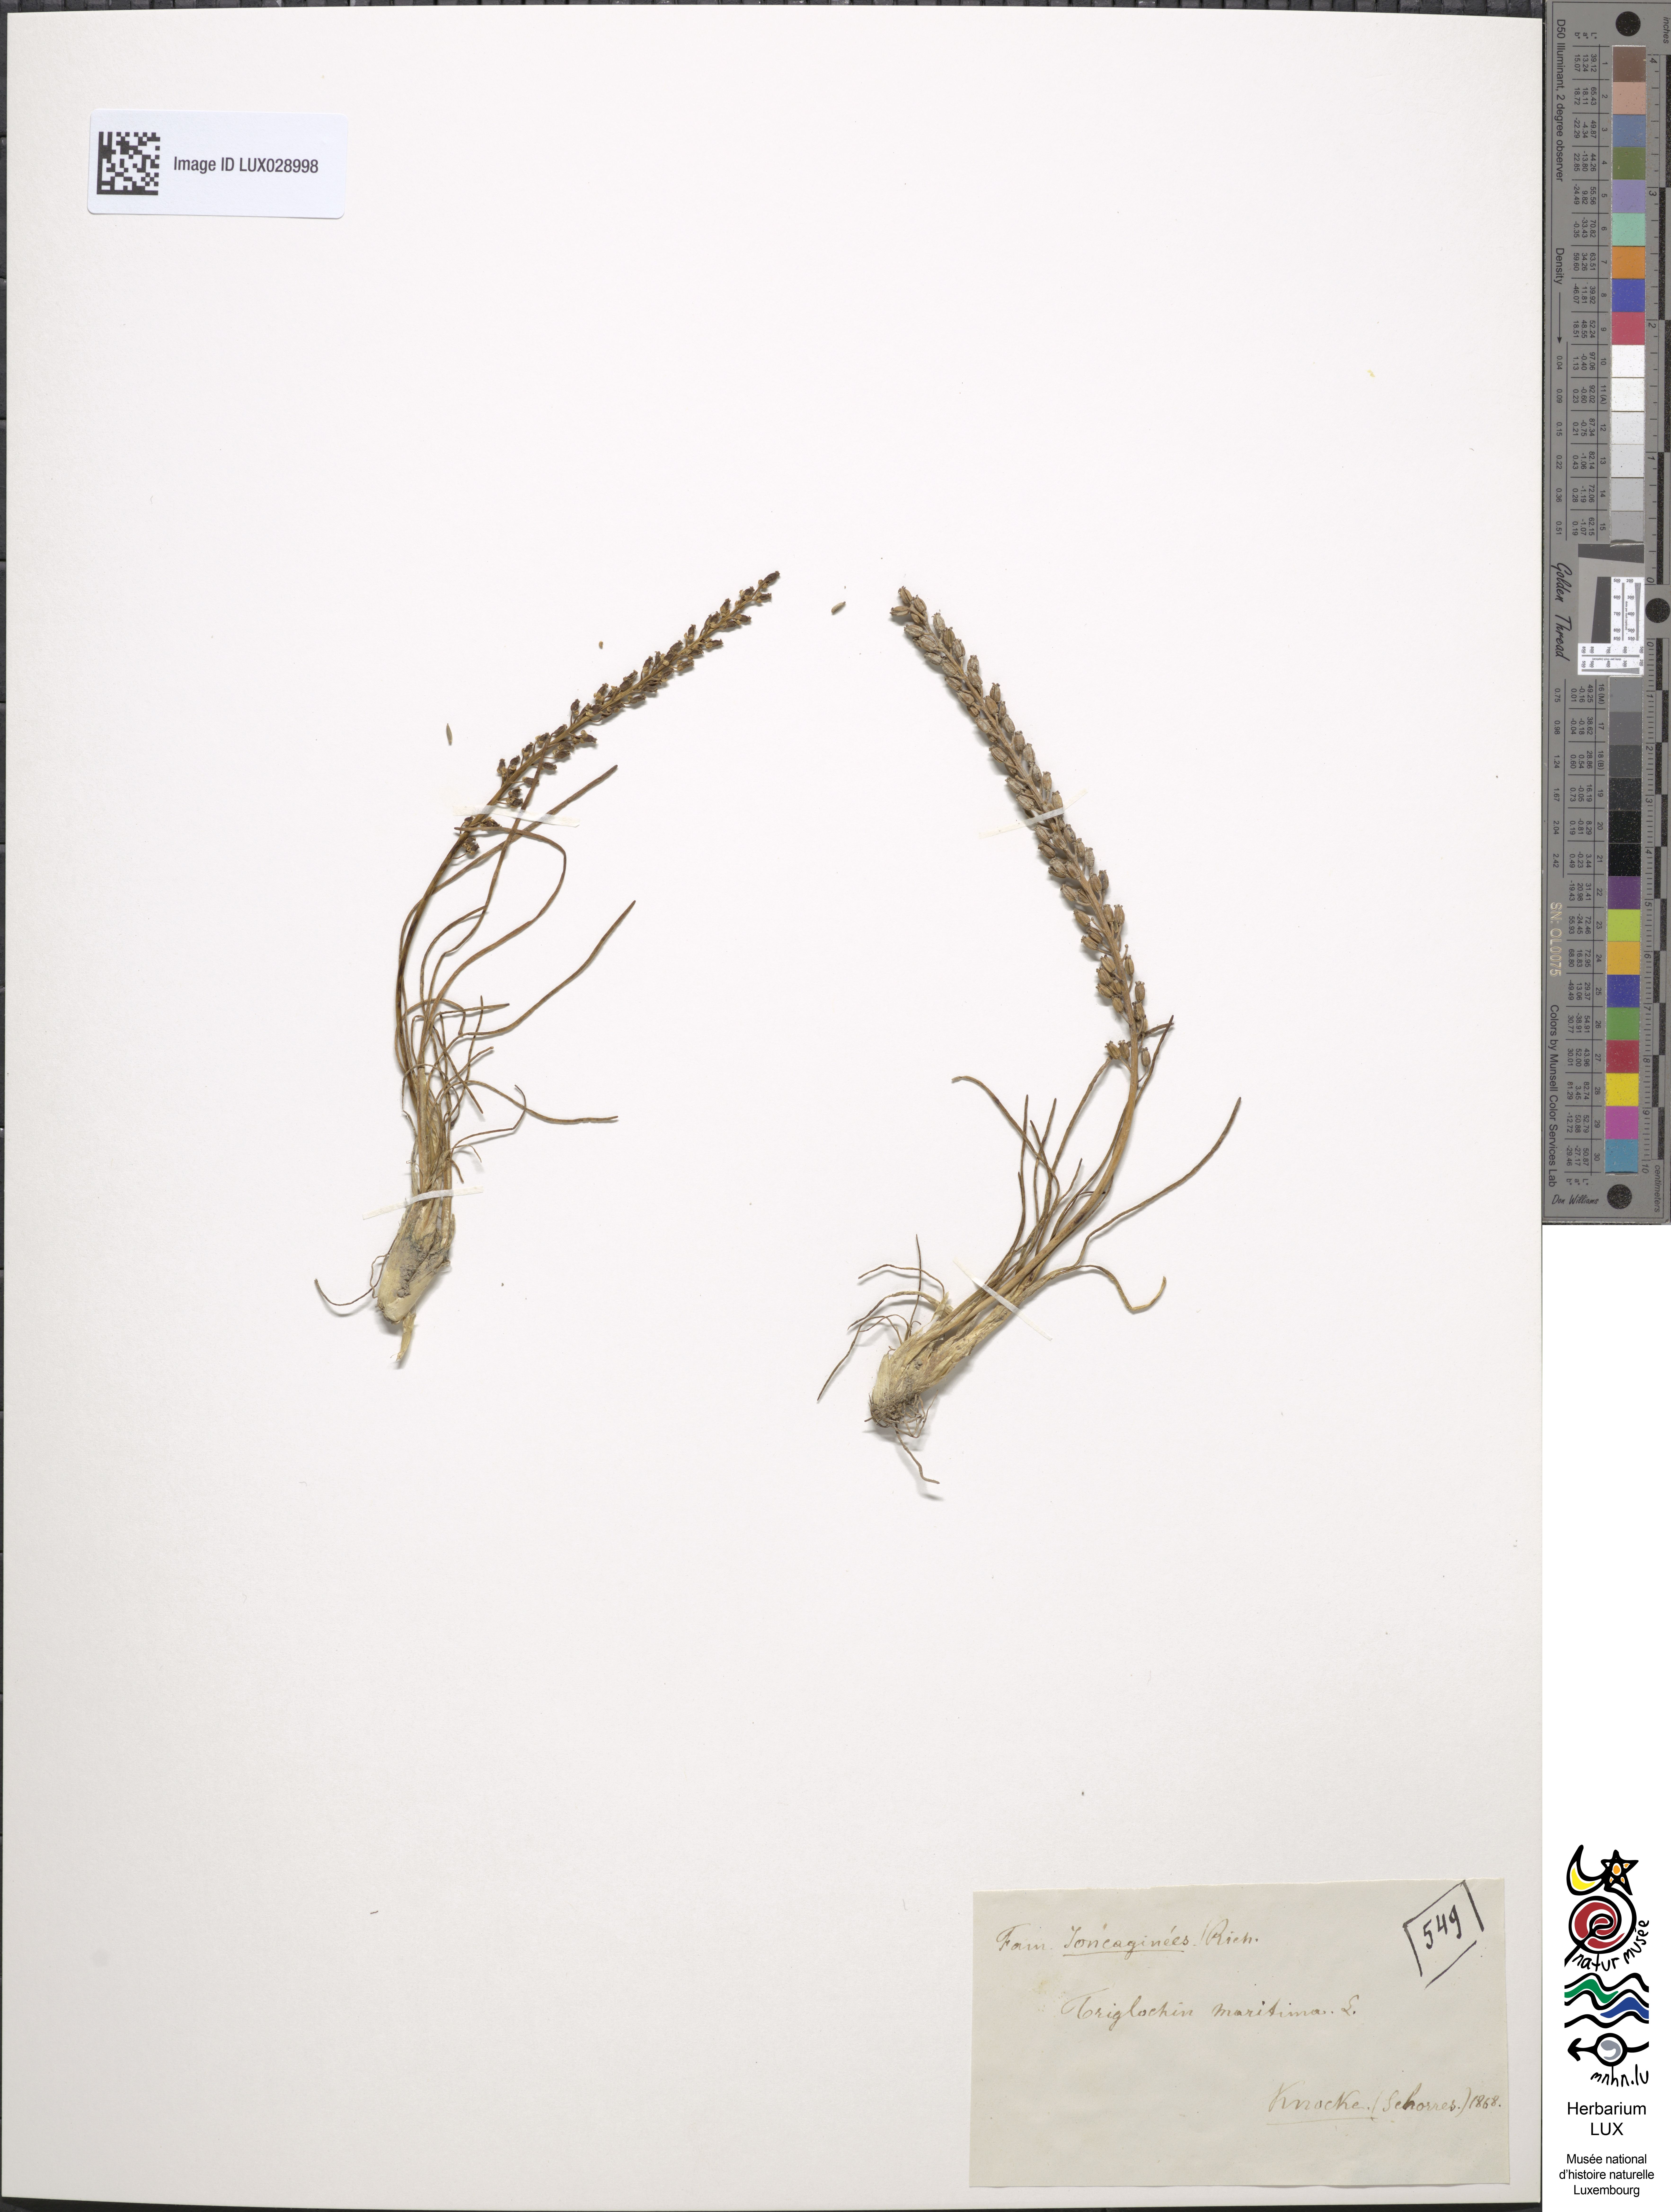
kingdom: Plantae
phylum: Tracheophyta
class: Liliopsida
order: Alismatales
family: Juncaginaceae
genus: Triglochin
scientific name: Triglochin maritima
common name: Sea arrowgrass
